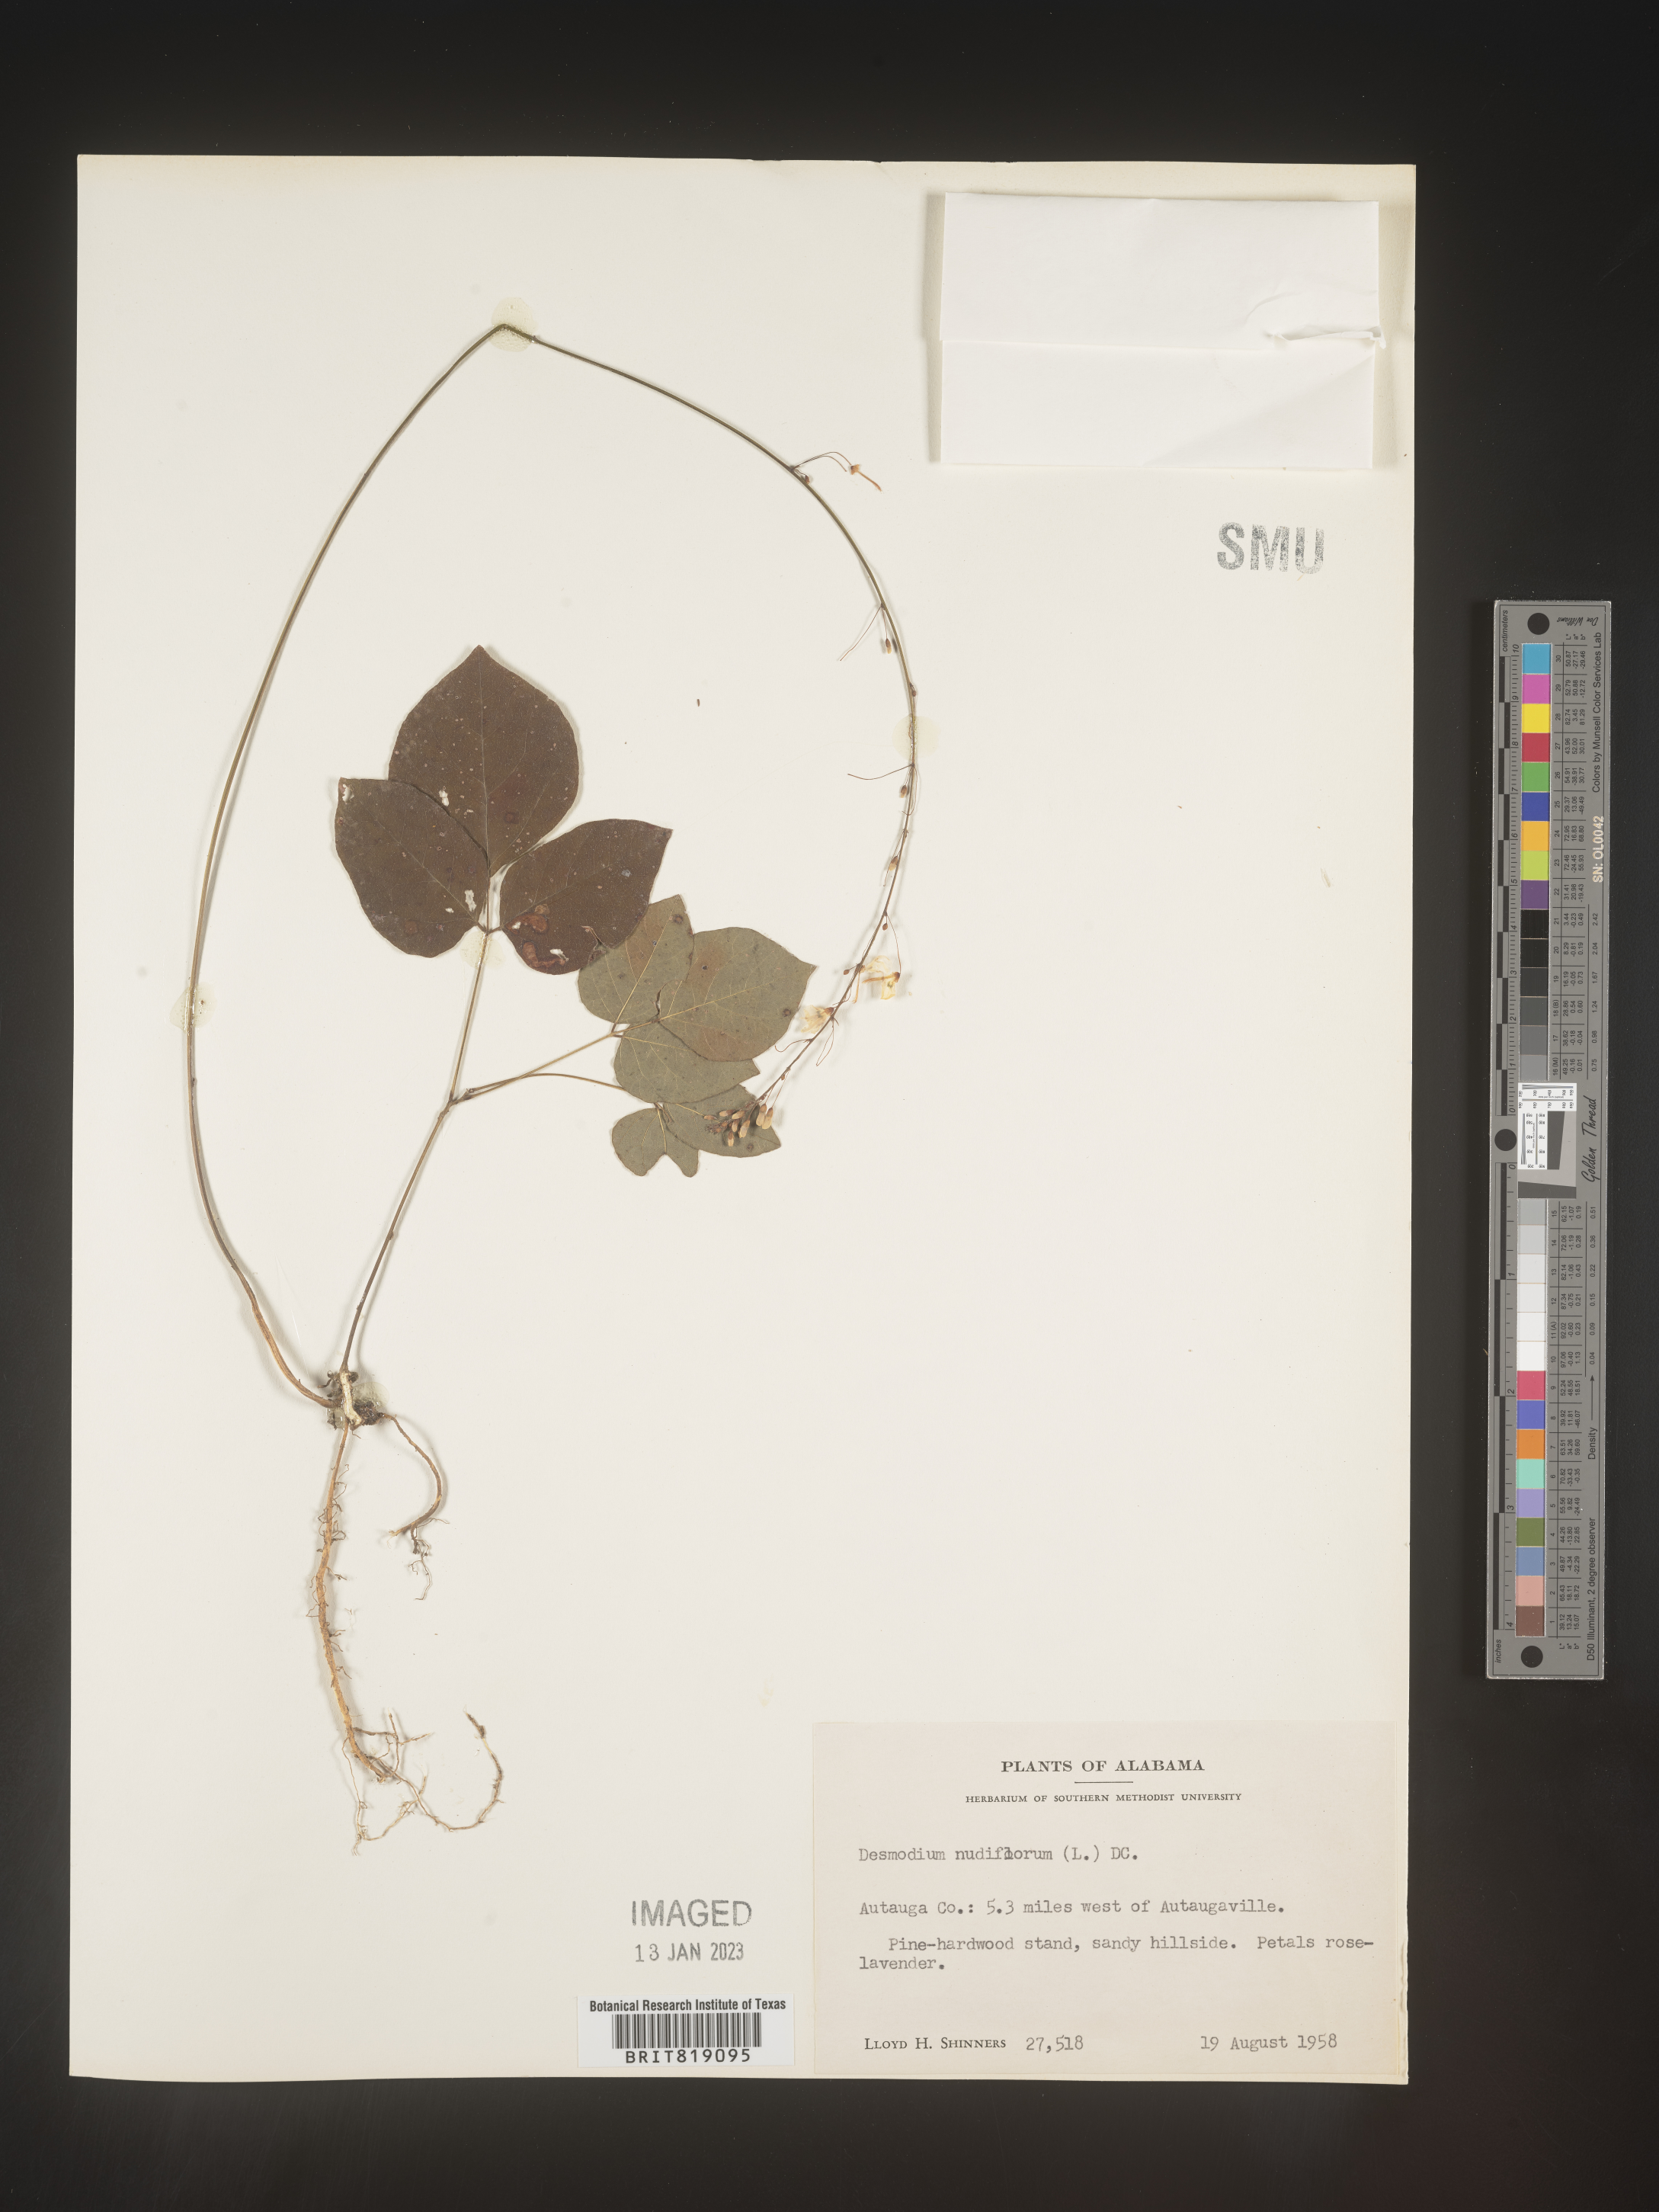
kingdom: Plantae
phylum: Tracheophyta
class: Magnoliopsida
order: Fabales
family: Fabaceae
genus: Hylodesmum
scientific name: Hylodesmum nudiflorum
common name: Bare-stemmed tick-trefoil
